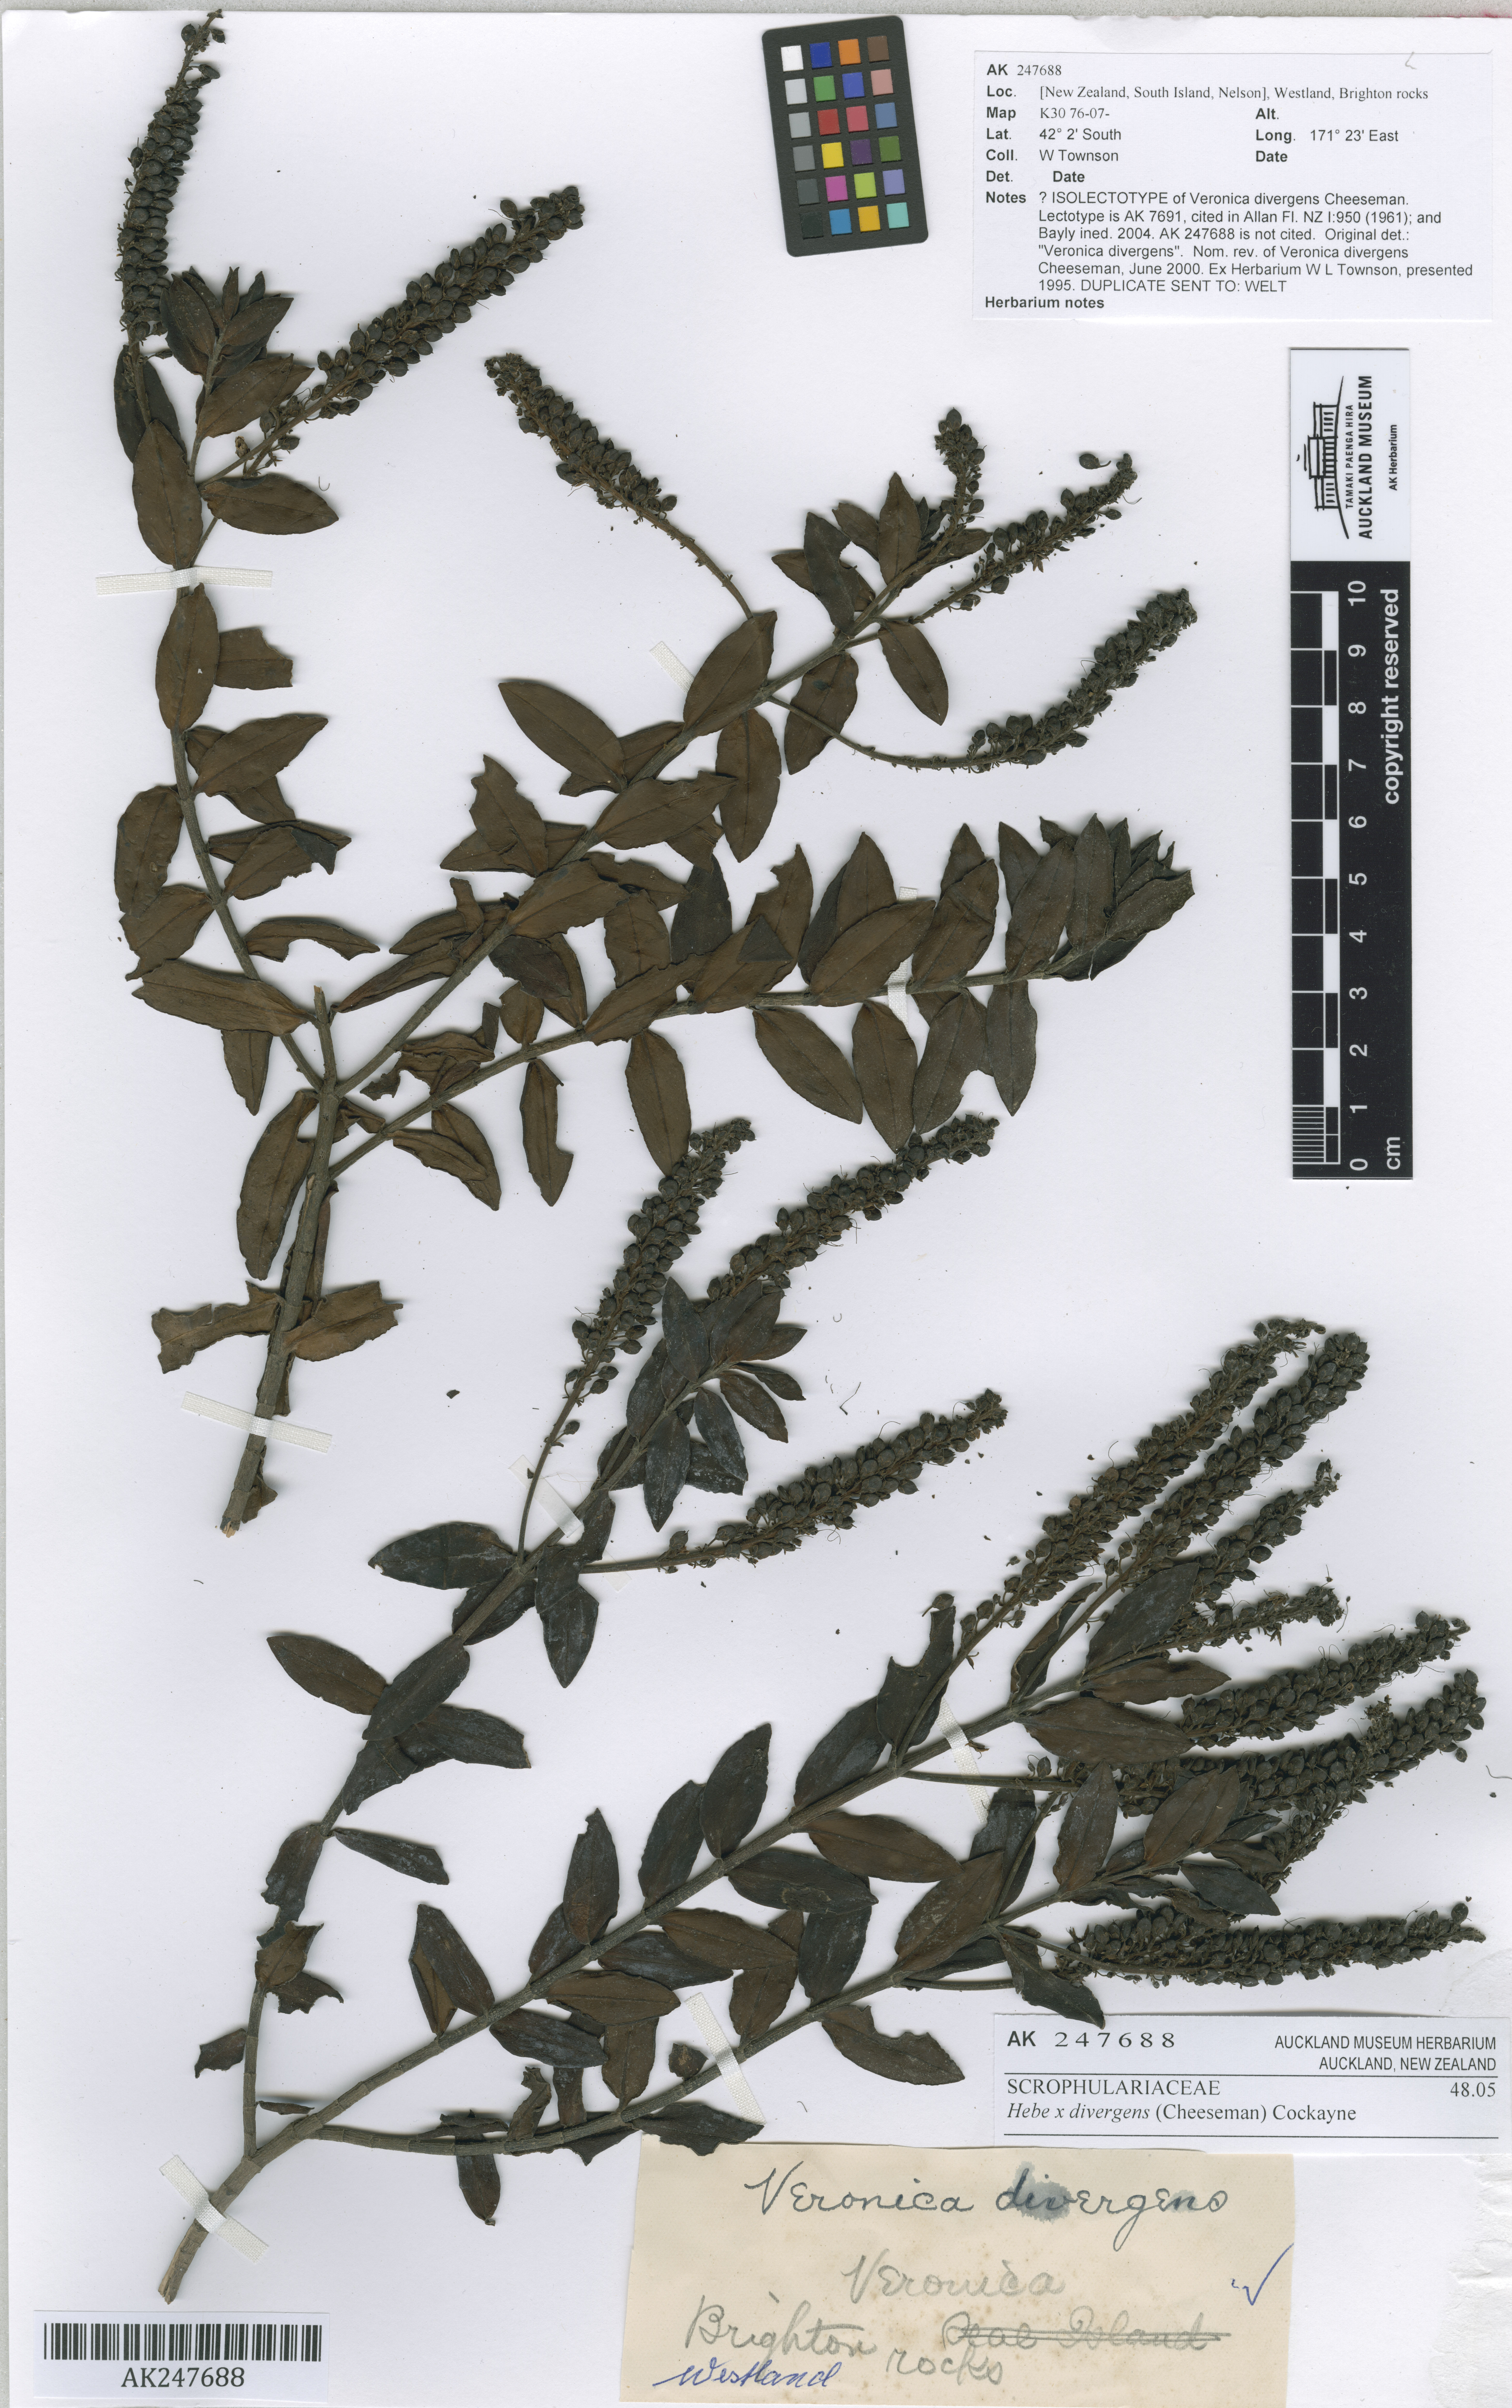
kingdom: Plantae
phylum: Tracheophyta
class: Magnoliopsida
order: Lamiales
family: Plantaginaceae
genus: Veronica
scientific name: Veronica divergens
